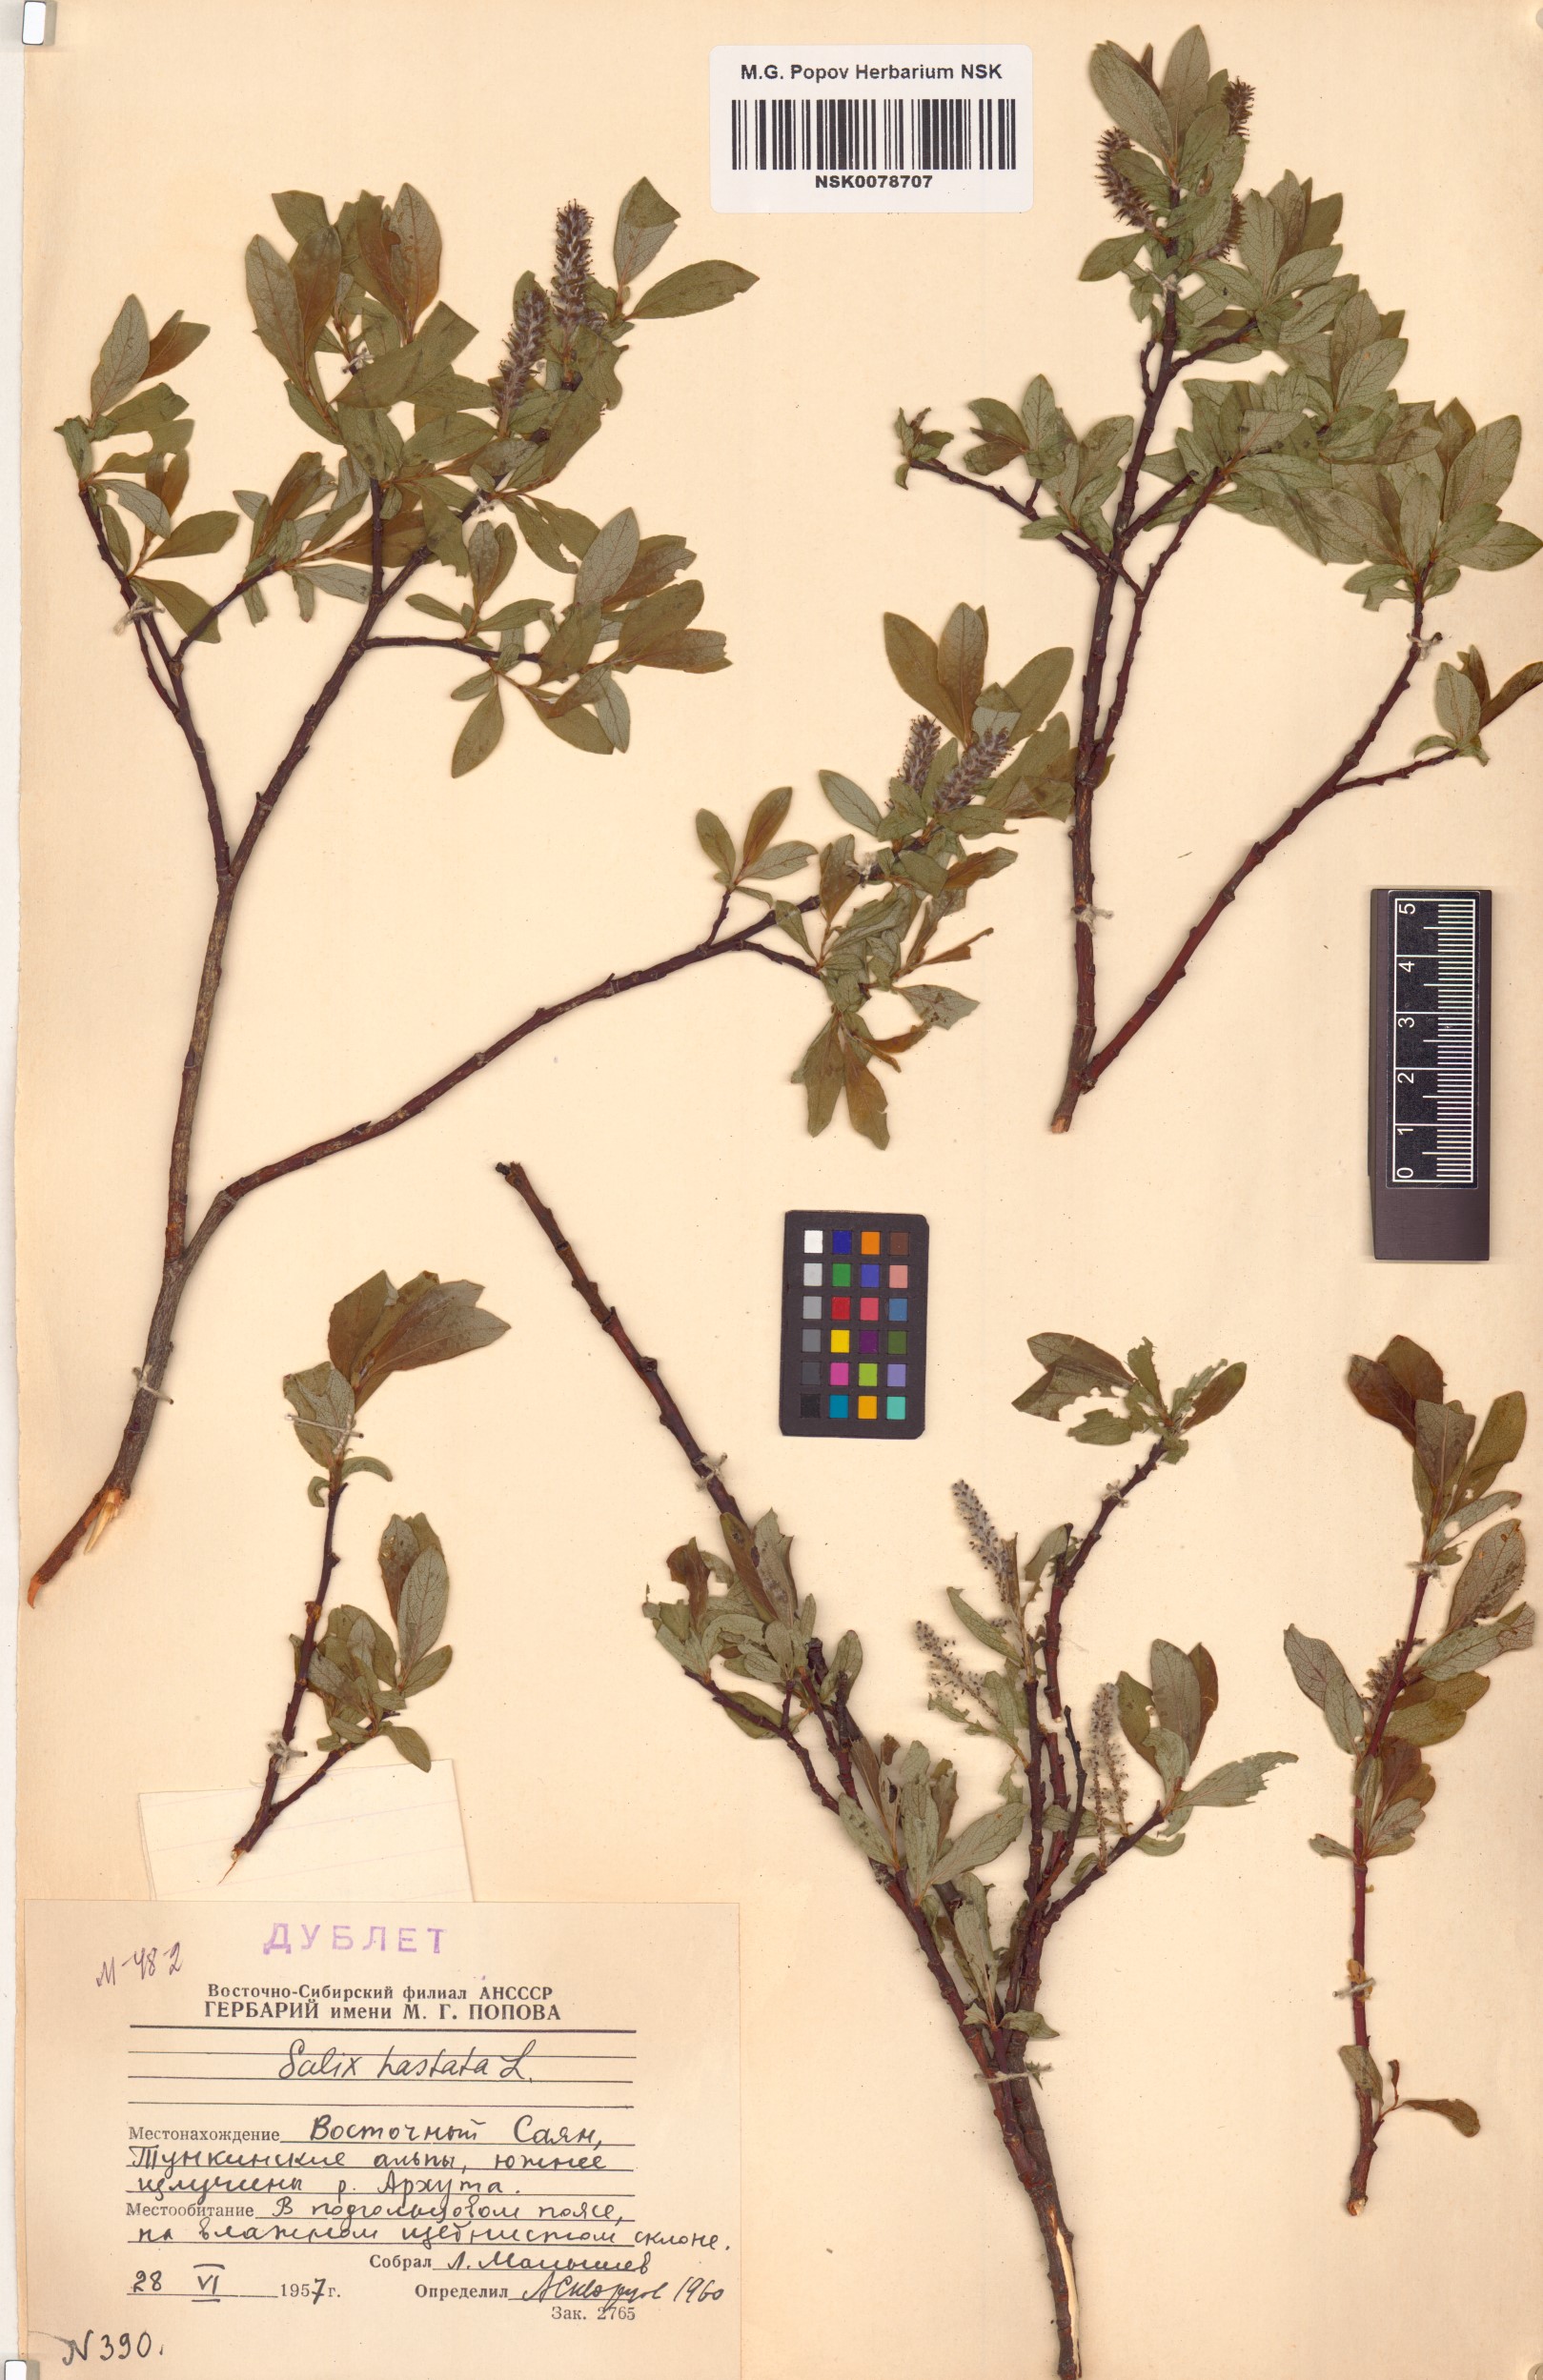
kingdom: Plantae
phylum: Tracheophyta
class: Magnoliopsida
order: Malpighiales
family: Salicaceae
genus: Salix
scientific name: Salix hastata
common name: Halberd willow
